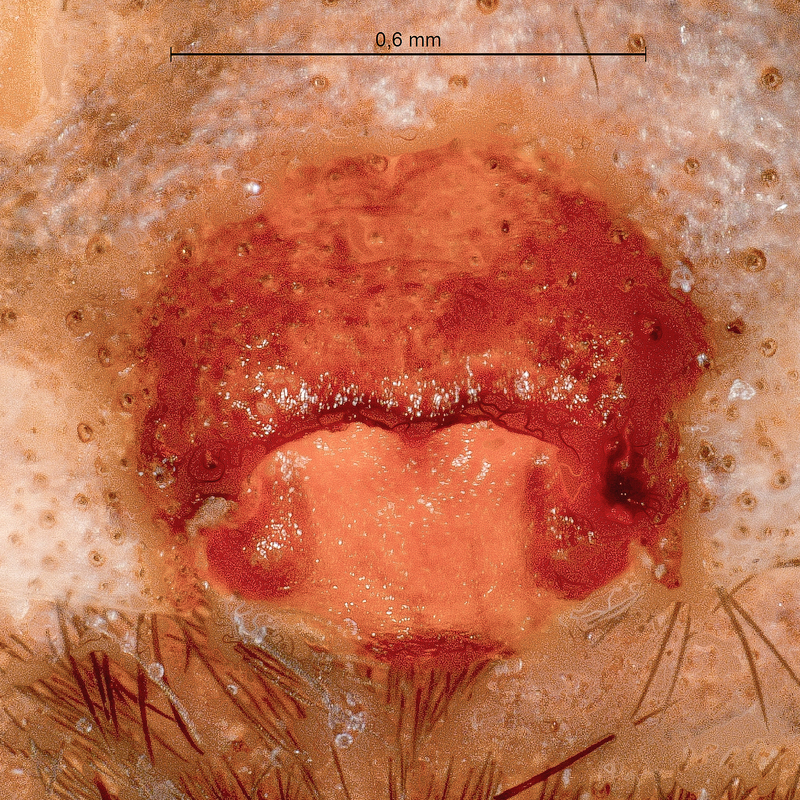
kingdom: Animalia
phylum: Arthropoda
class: Arachnida
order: Araneae
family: Lycosidae
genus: Alopecosa
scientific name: Alopecosa striatipes
